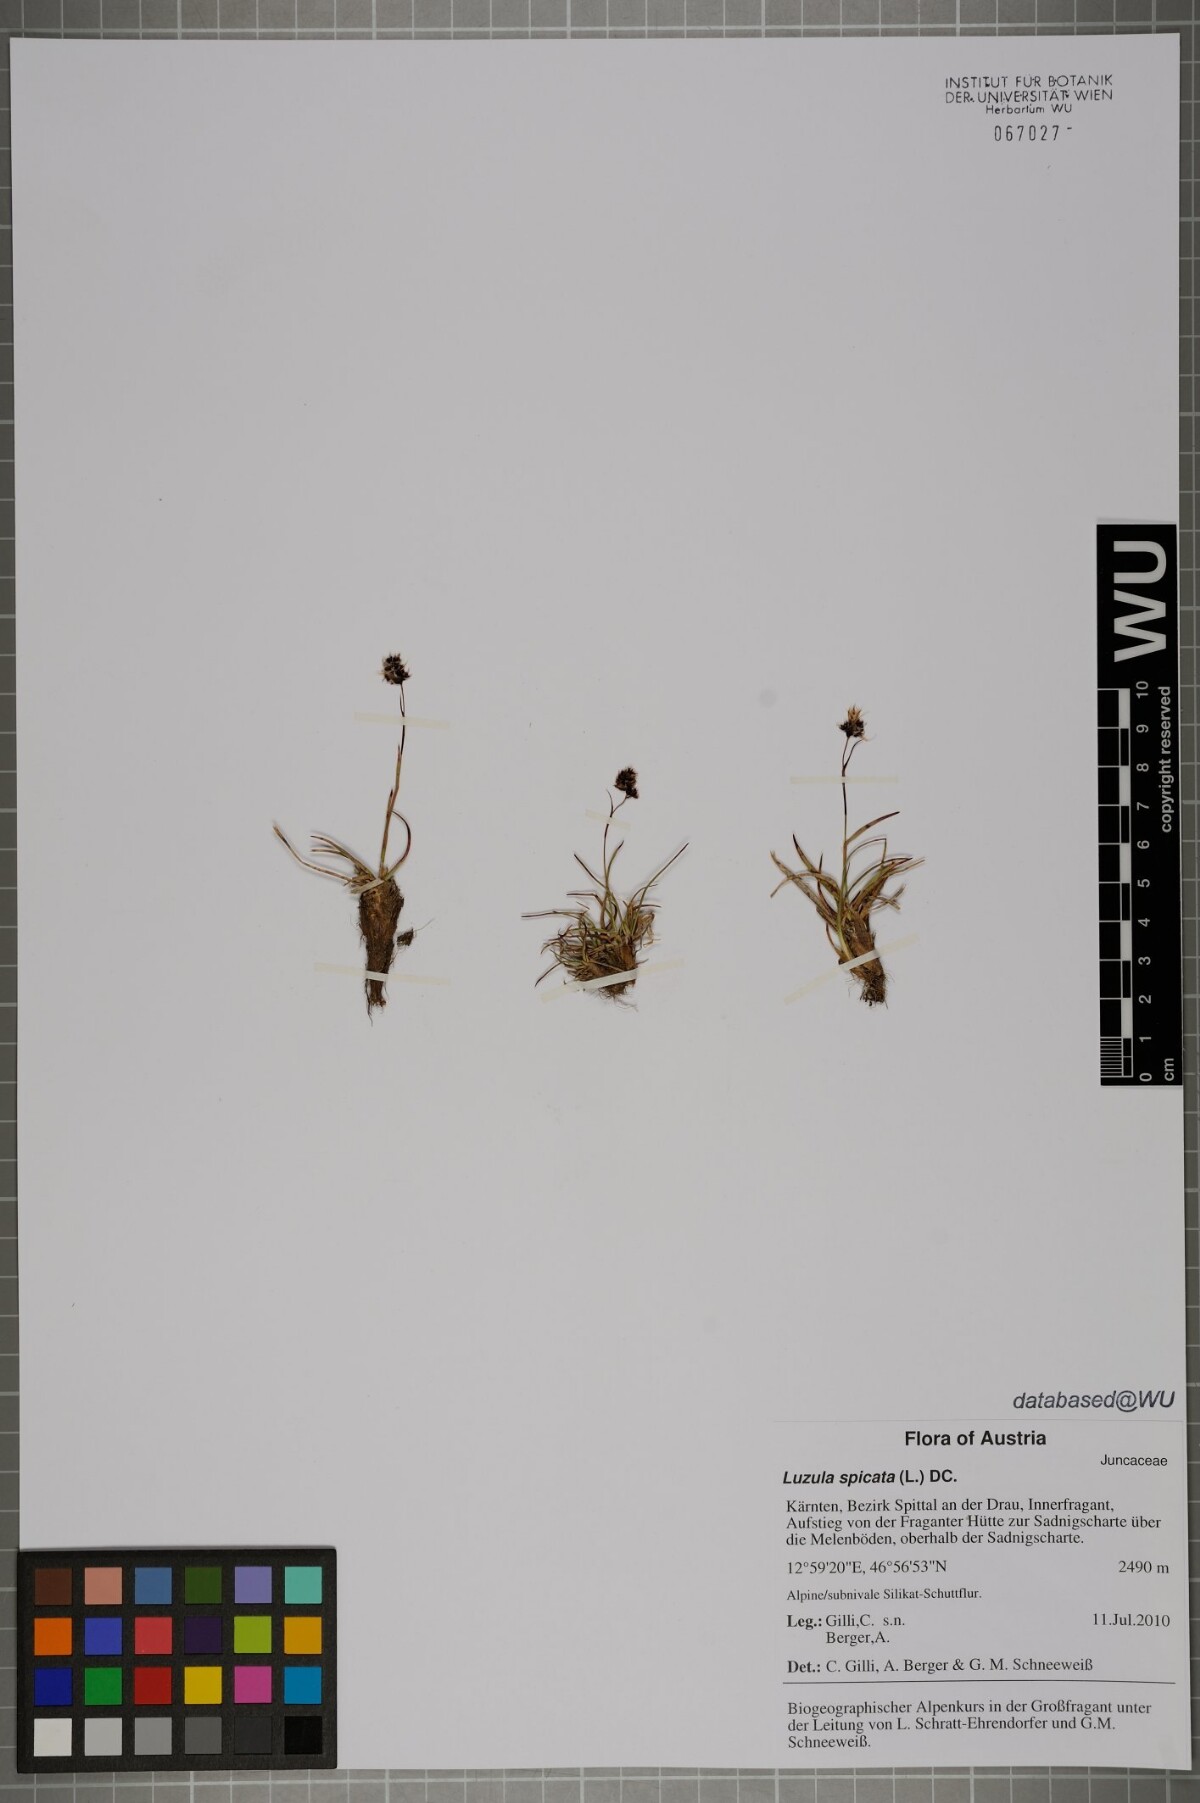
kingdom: Plantae
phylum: Tracheophyta
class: Liliopsida
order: Poales
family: Juncaceae
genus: Luzula
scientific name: Luzula spicata
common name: Spiked wood-rush
